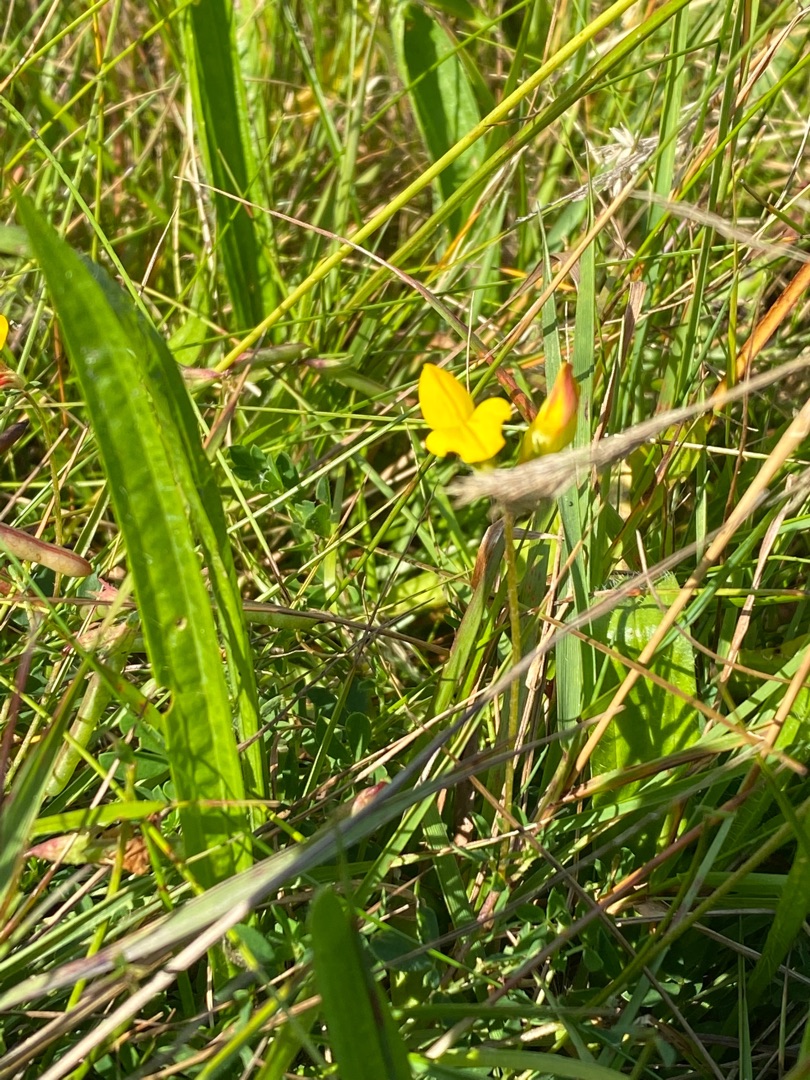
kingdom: Plantae
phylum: Tracheophyta
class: Magnoliopsida
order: Fabales
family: Fabaceae
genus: Lotus
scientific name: Lotus corniculatus
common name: Almindelig kællingetand
